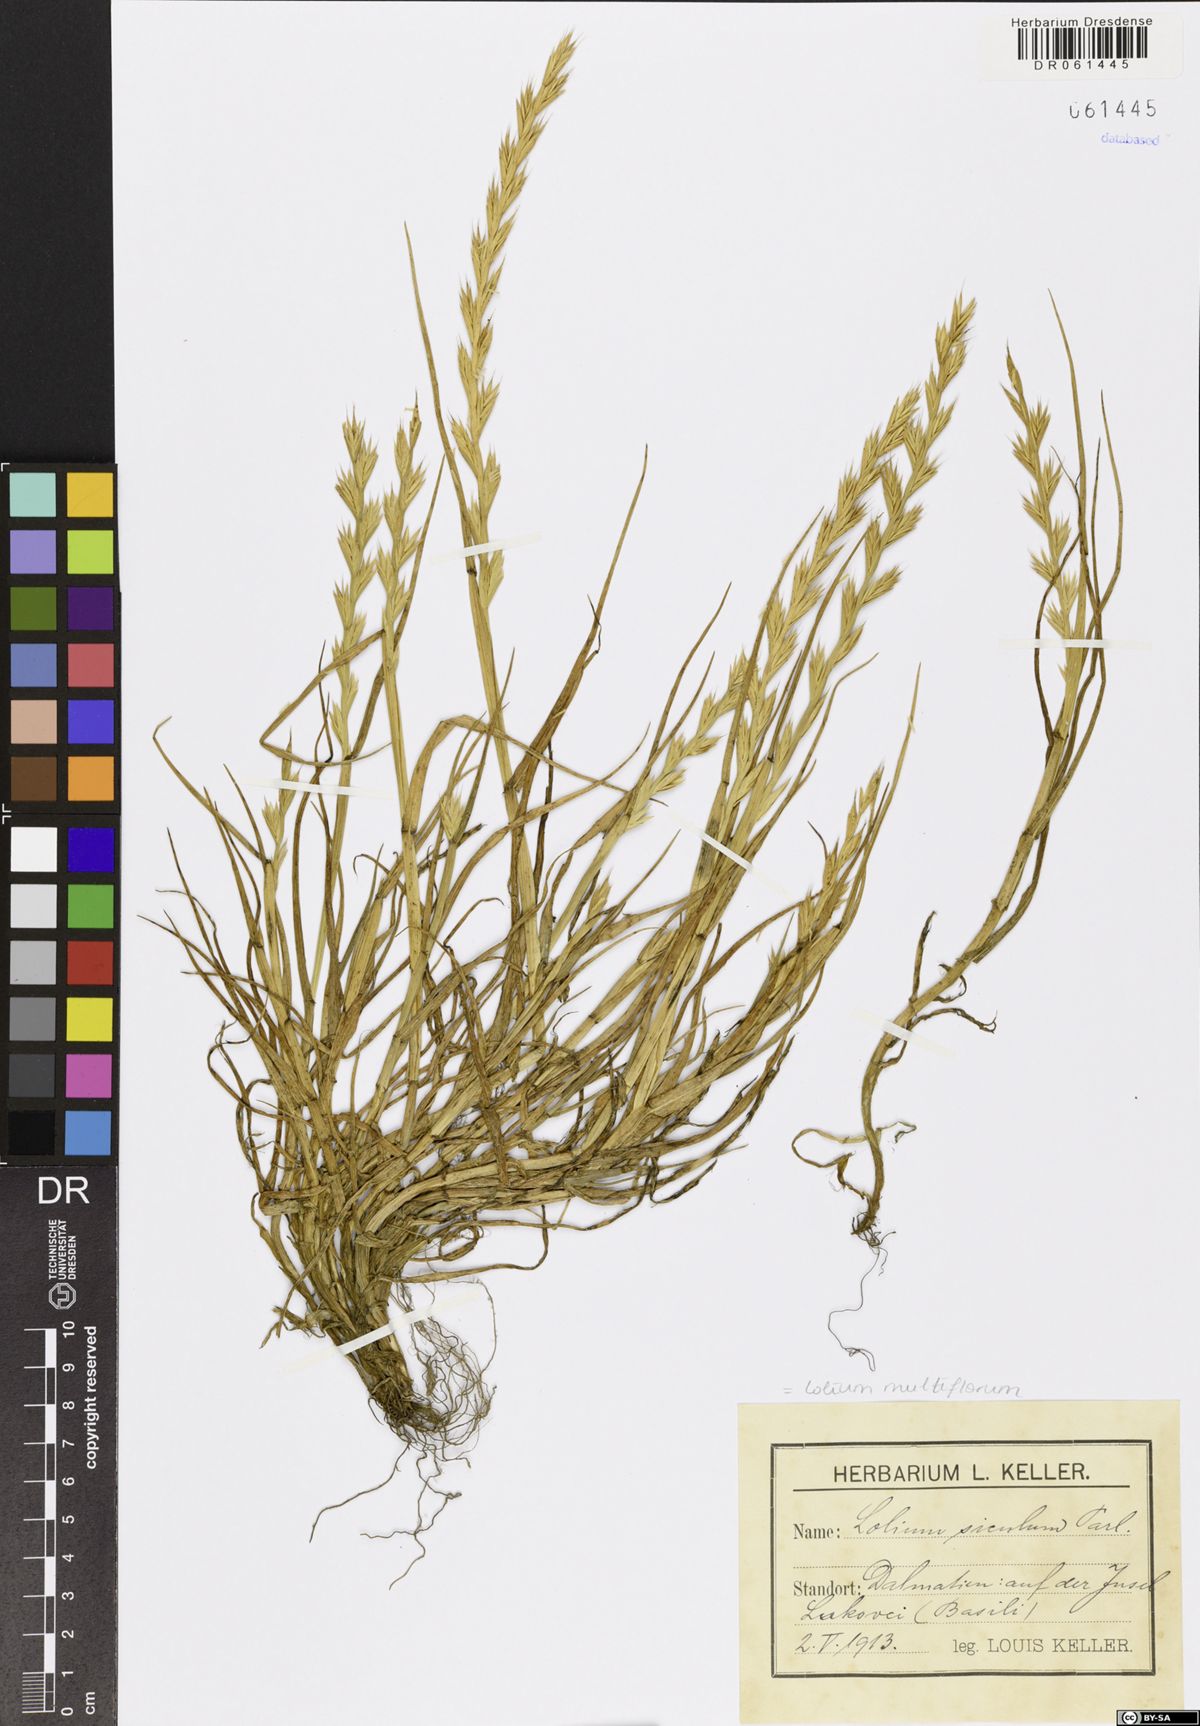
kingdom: Plantae
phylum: Tracheophyta
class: Liliopsida
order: Poales
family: Poaceae
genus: Lolium
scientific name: Lolium multiflorum
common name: Annual ryegrass
